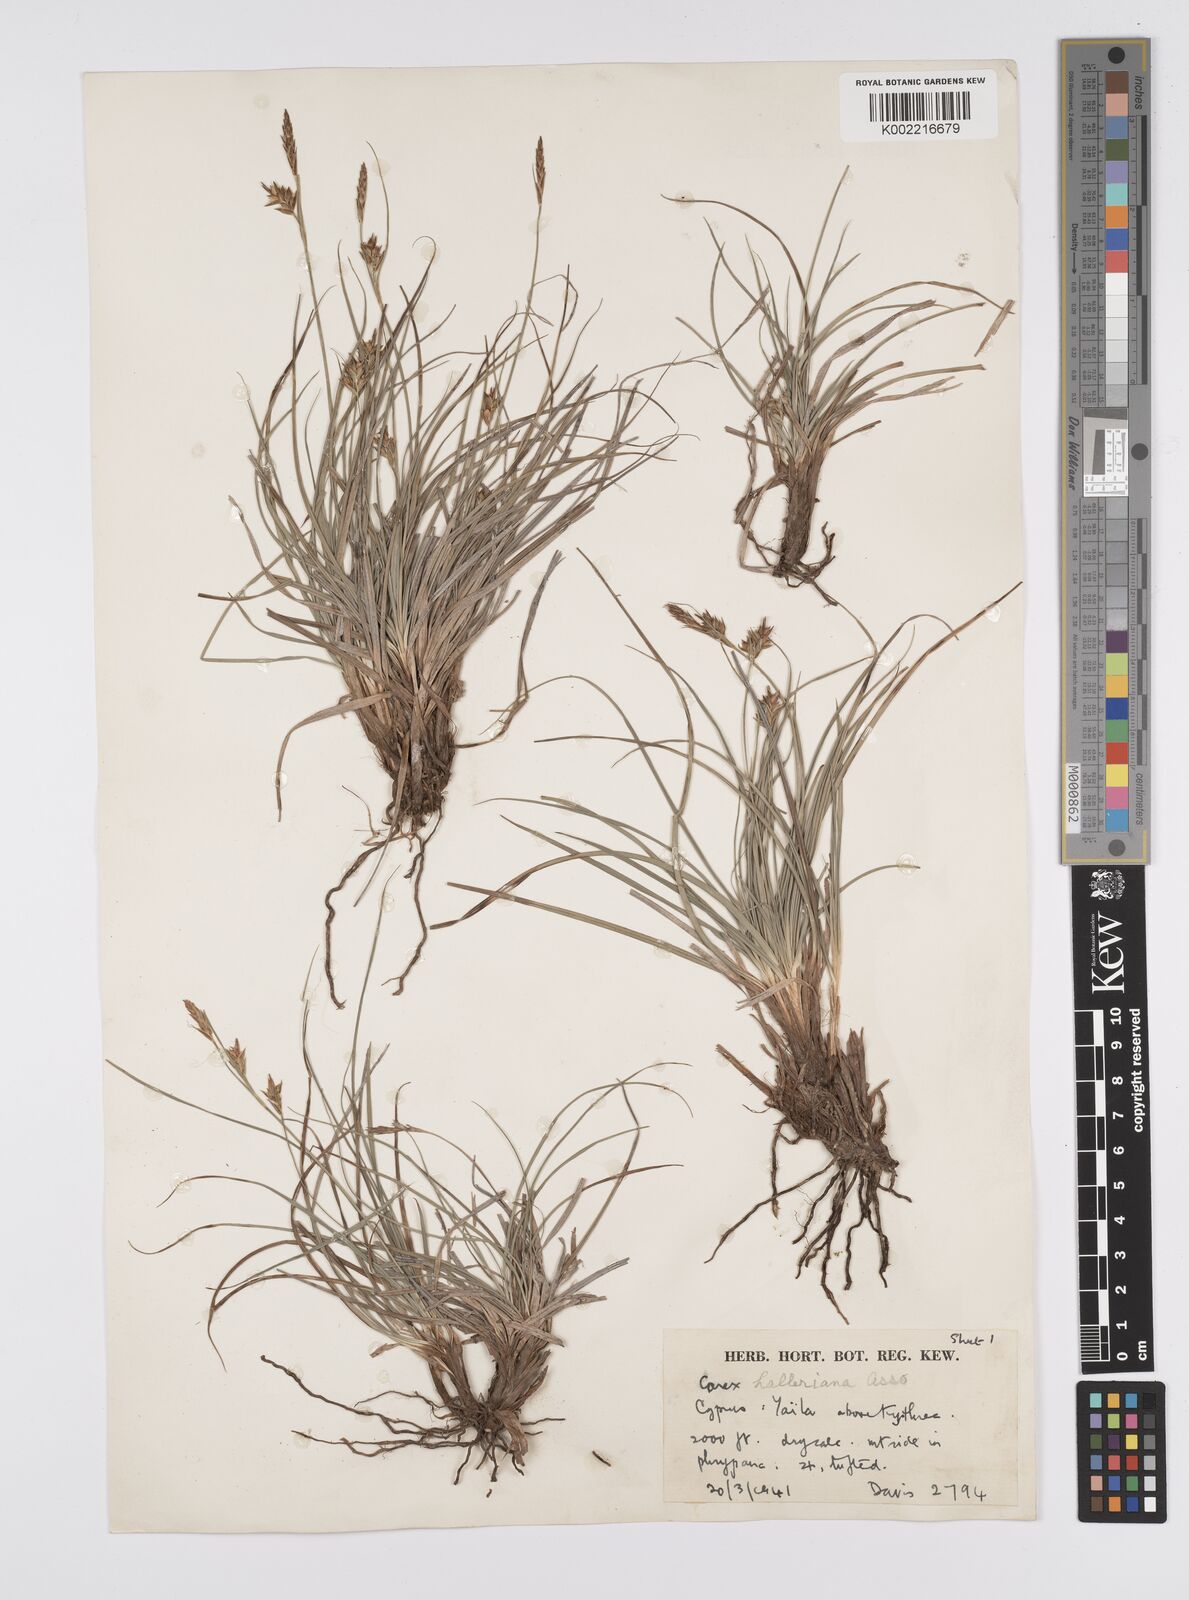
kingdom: Plantae
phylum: Tracheophyta
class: Liliopsida
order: Poales
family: Cyperaceae
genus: Carex
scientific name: Carex halleriana
